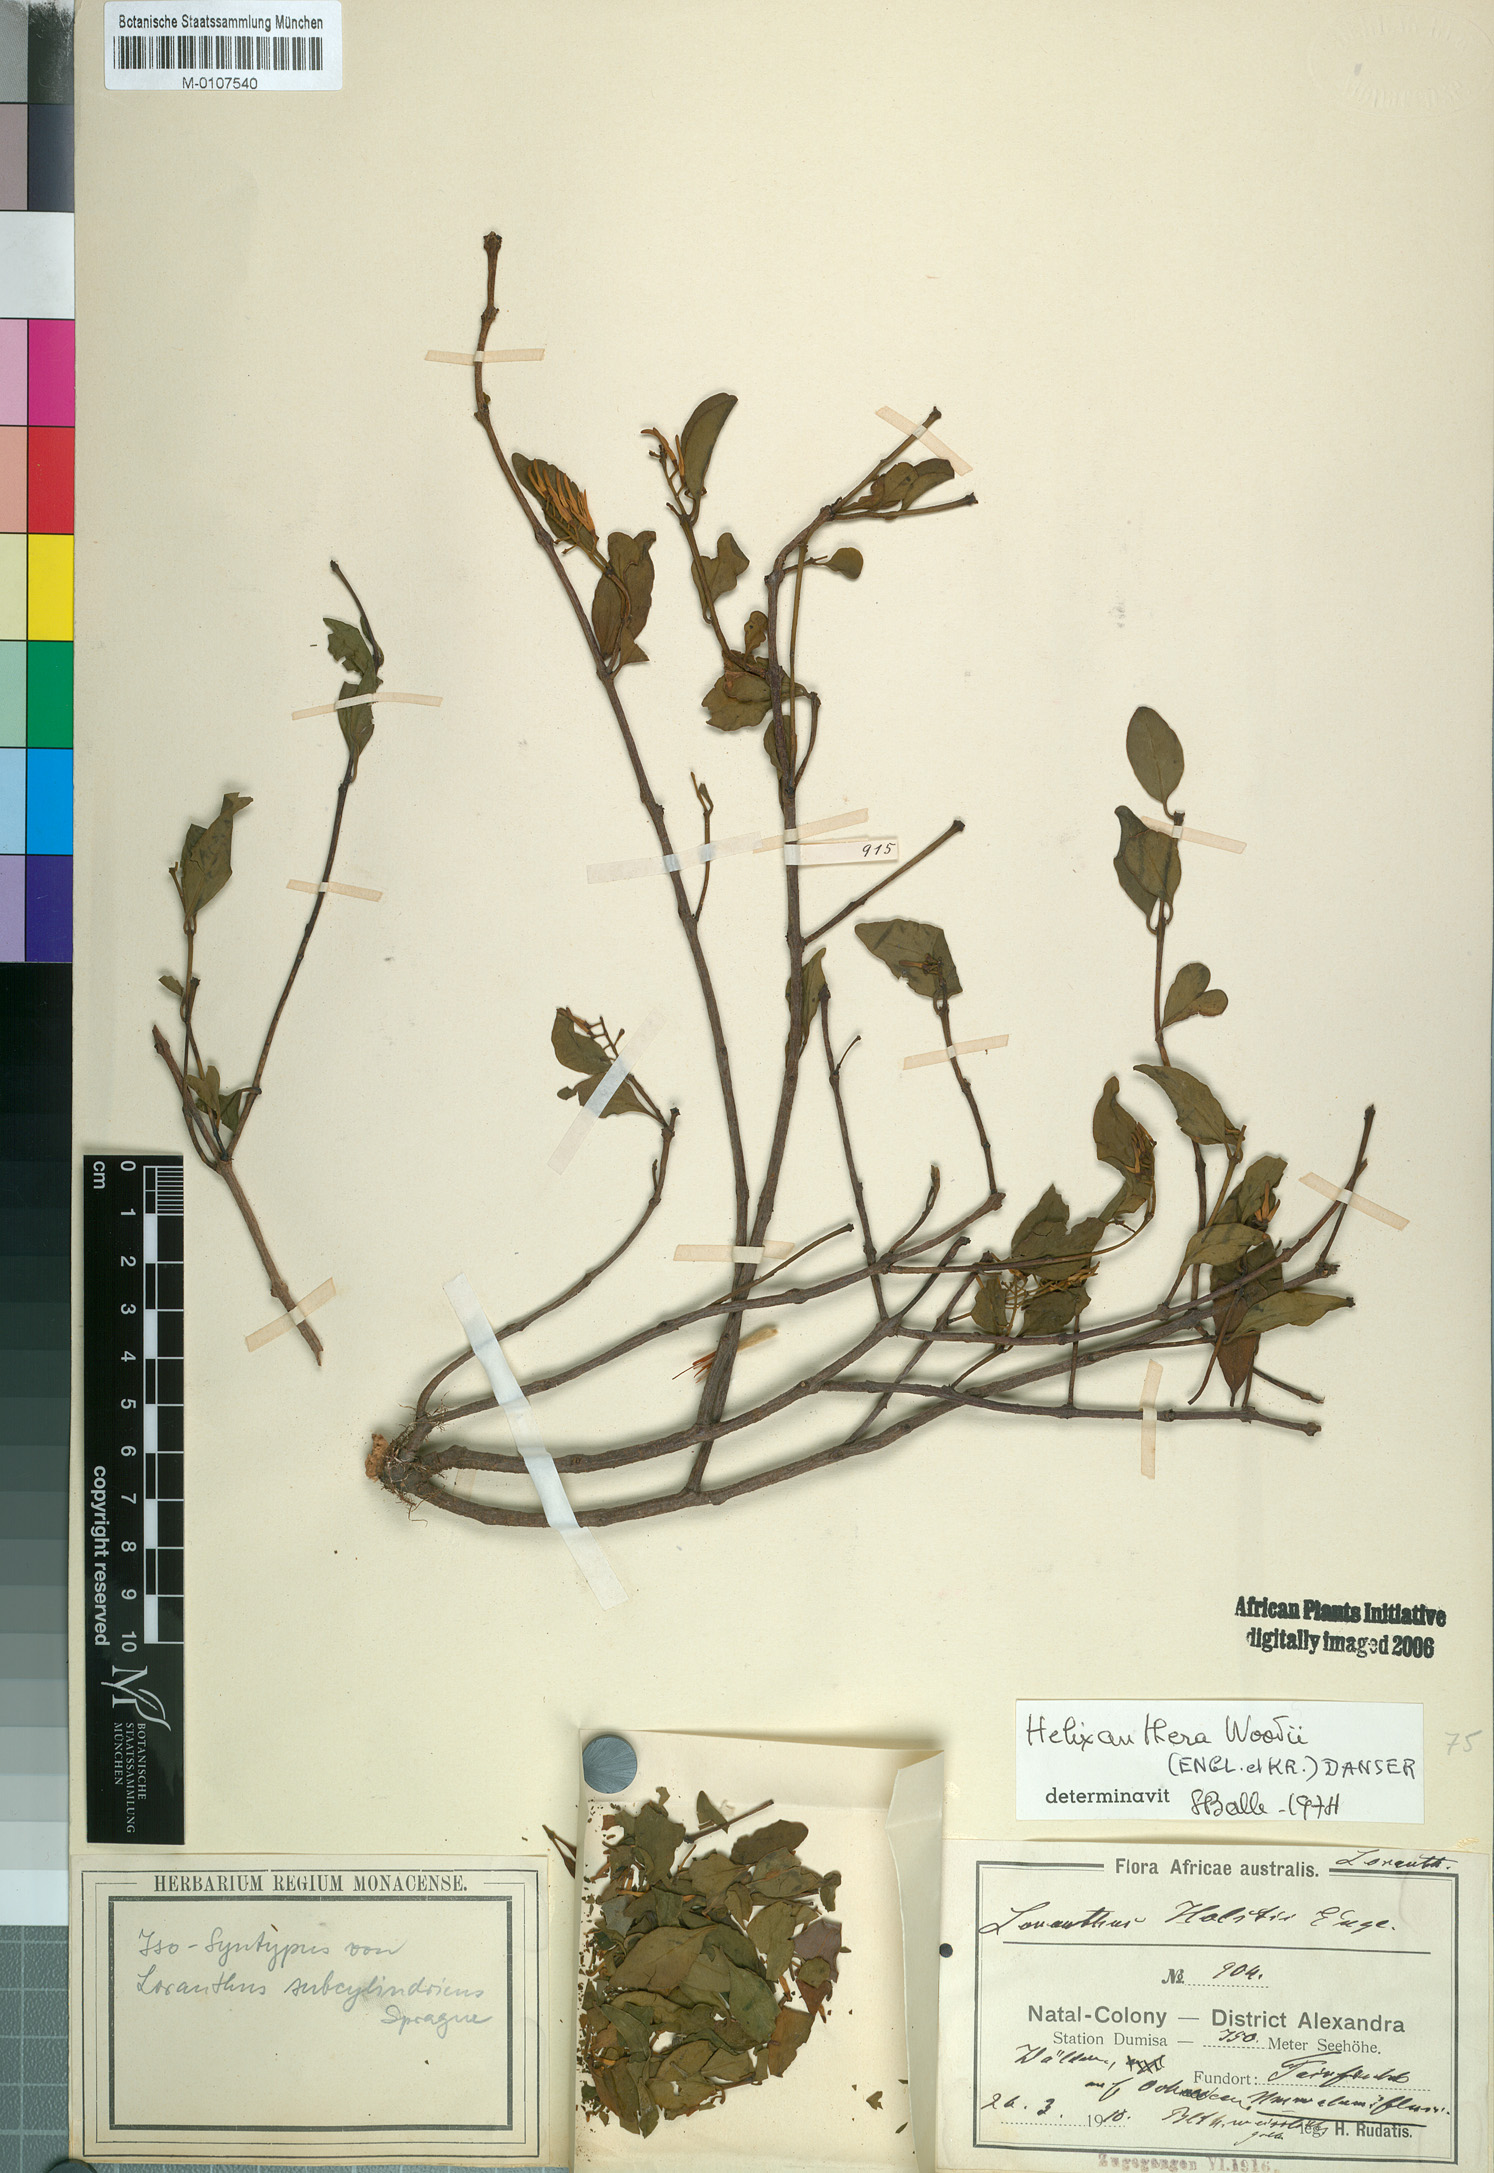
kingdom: Plantae
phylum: Tracheophyta
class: Magnoliopsida
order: Santalales
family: Loranthaceae
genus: Helixanthera
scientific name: Helixanthera woodii
